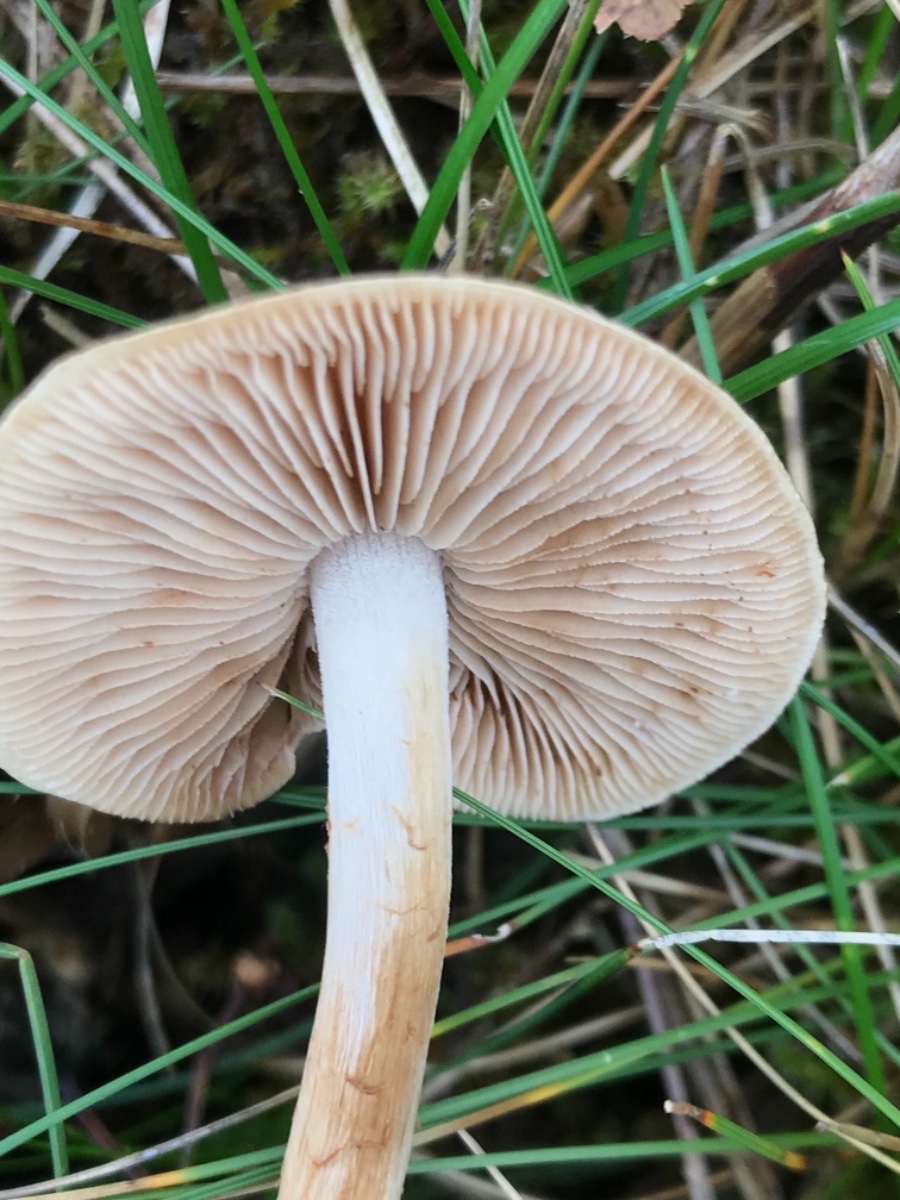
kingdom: Fungi
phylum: Basidiomycota
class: Agaricomycetes
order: Agaricales
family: Hymenogastraceae
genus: Hebeloma
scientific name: Hebeloma
